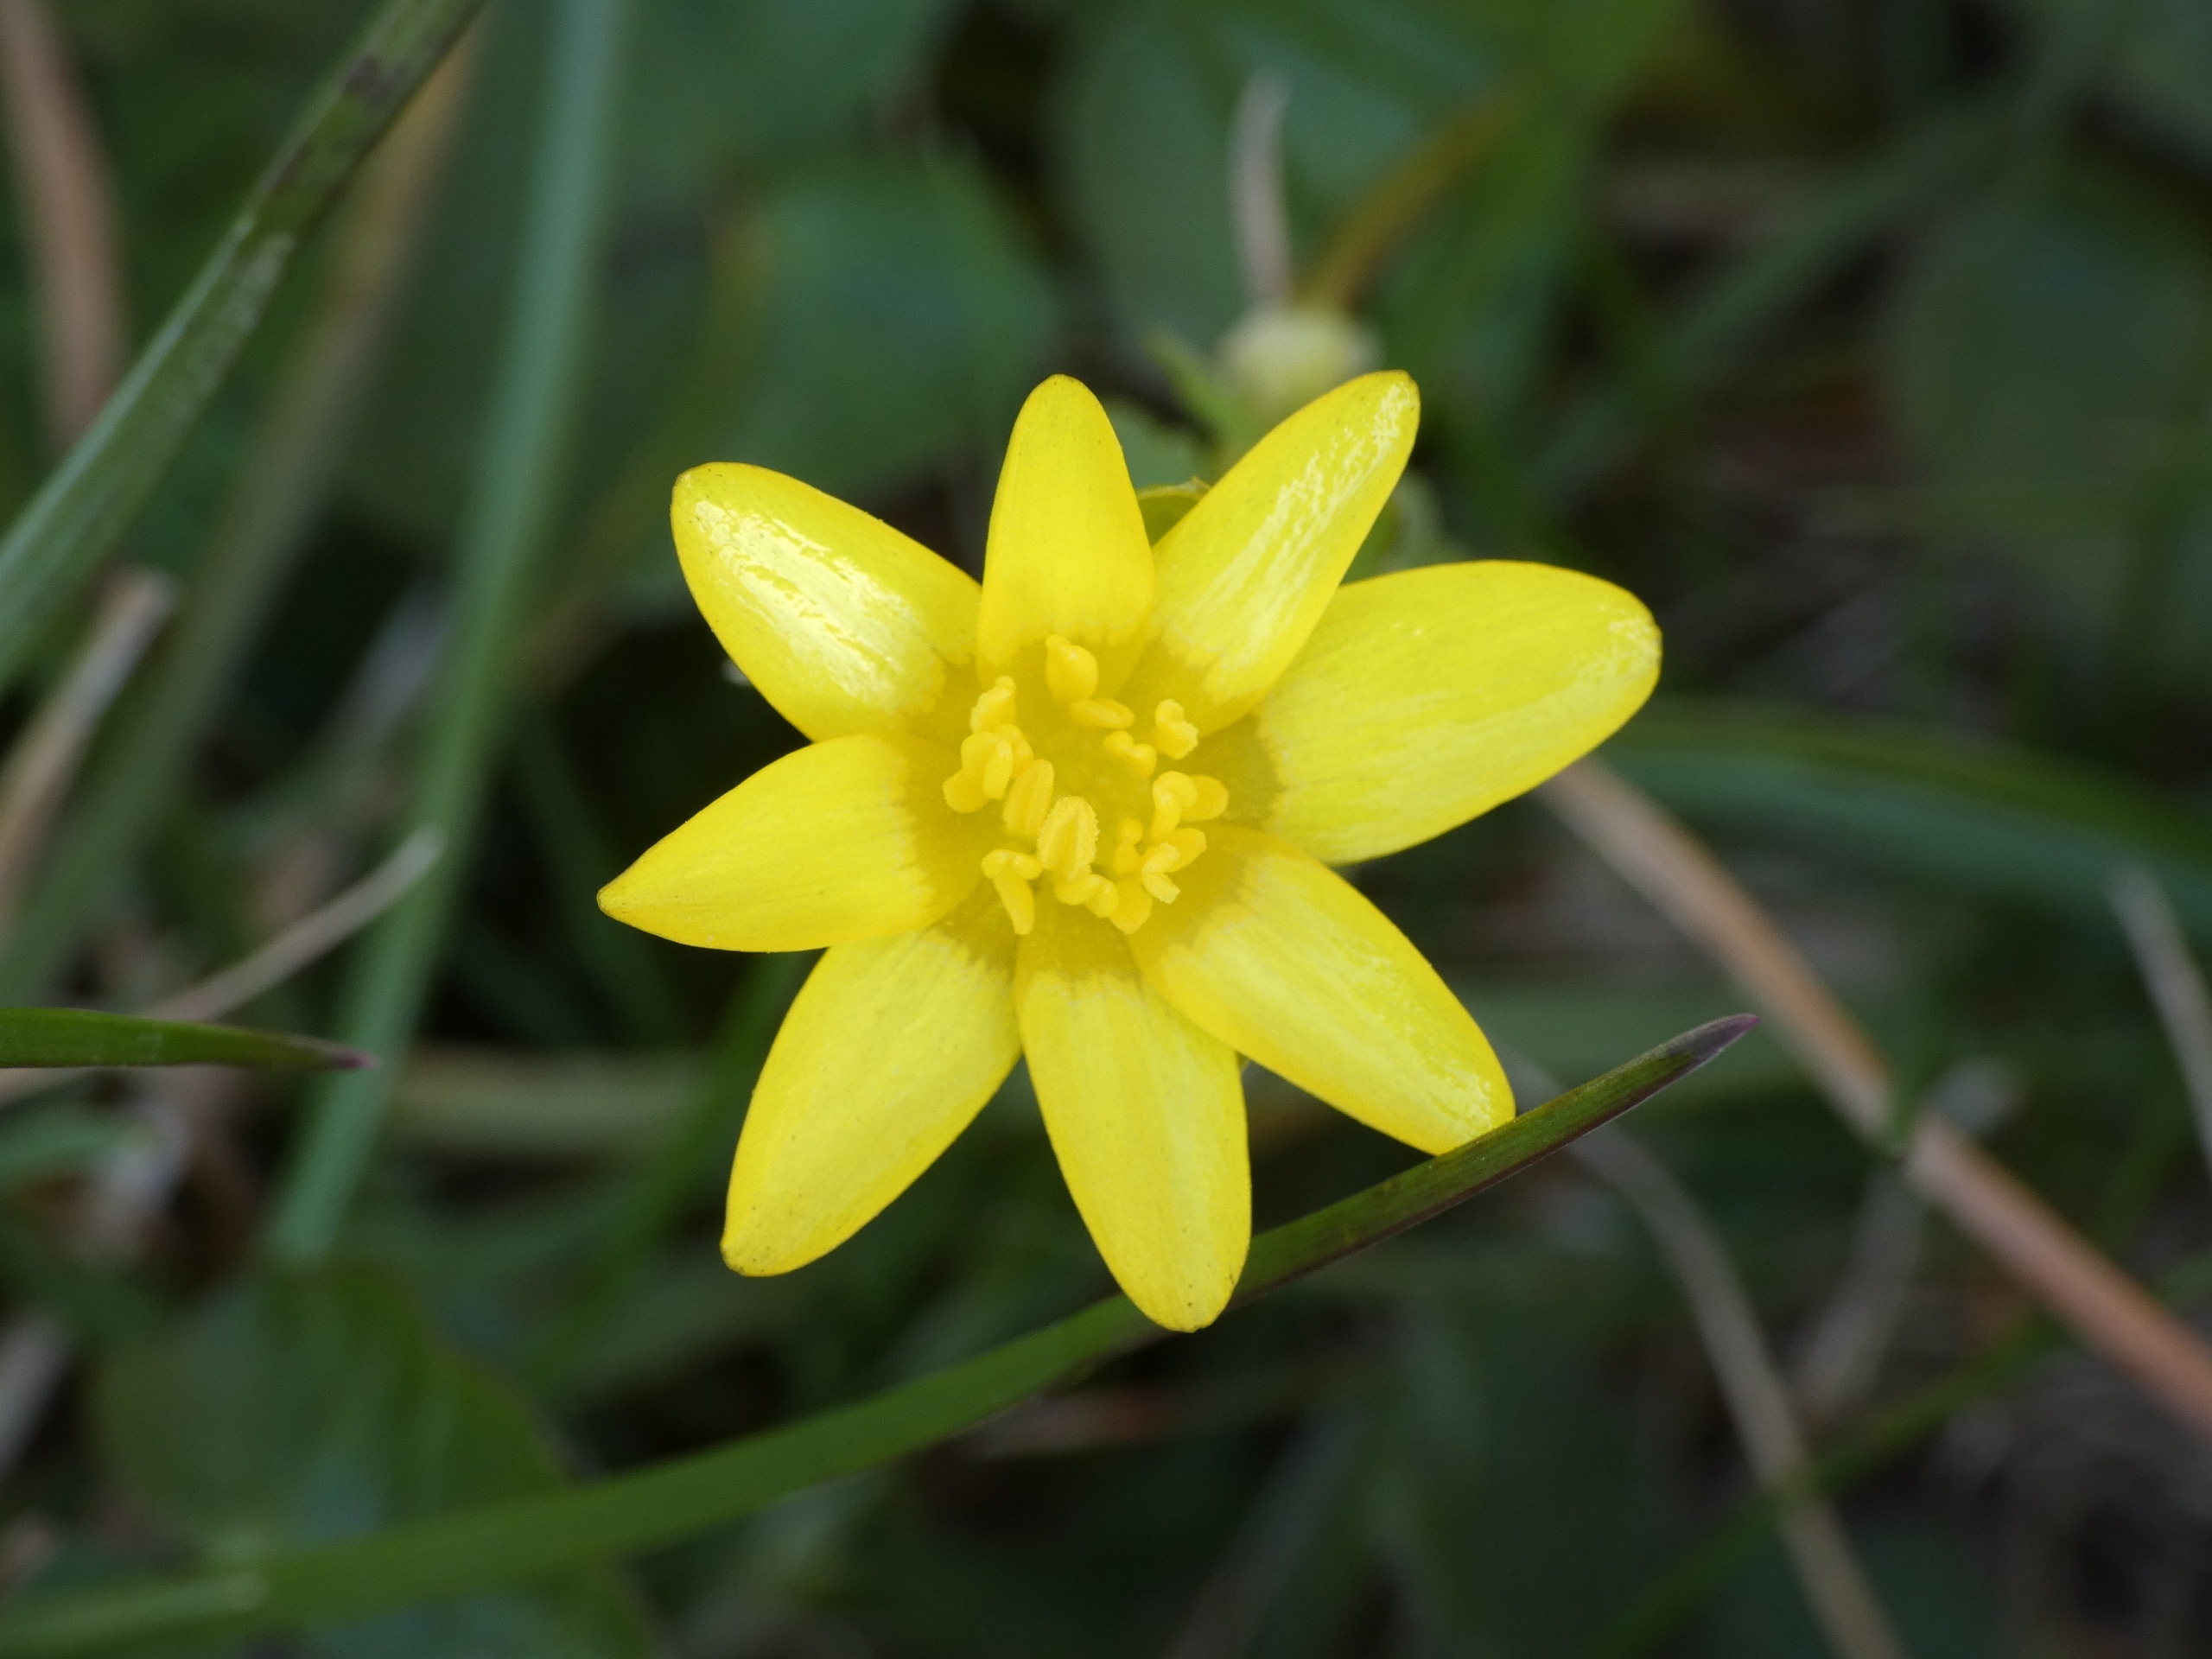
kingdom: Plantae
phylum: Tracheophyta
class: Magnoliopsida
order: Ranunculales
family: Ranunculaceae
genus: Ficaria
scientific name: Ficaria verna
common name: Vorterod
